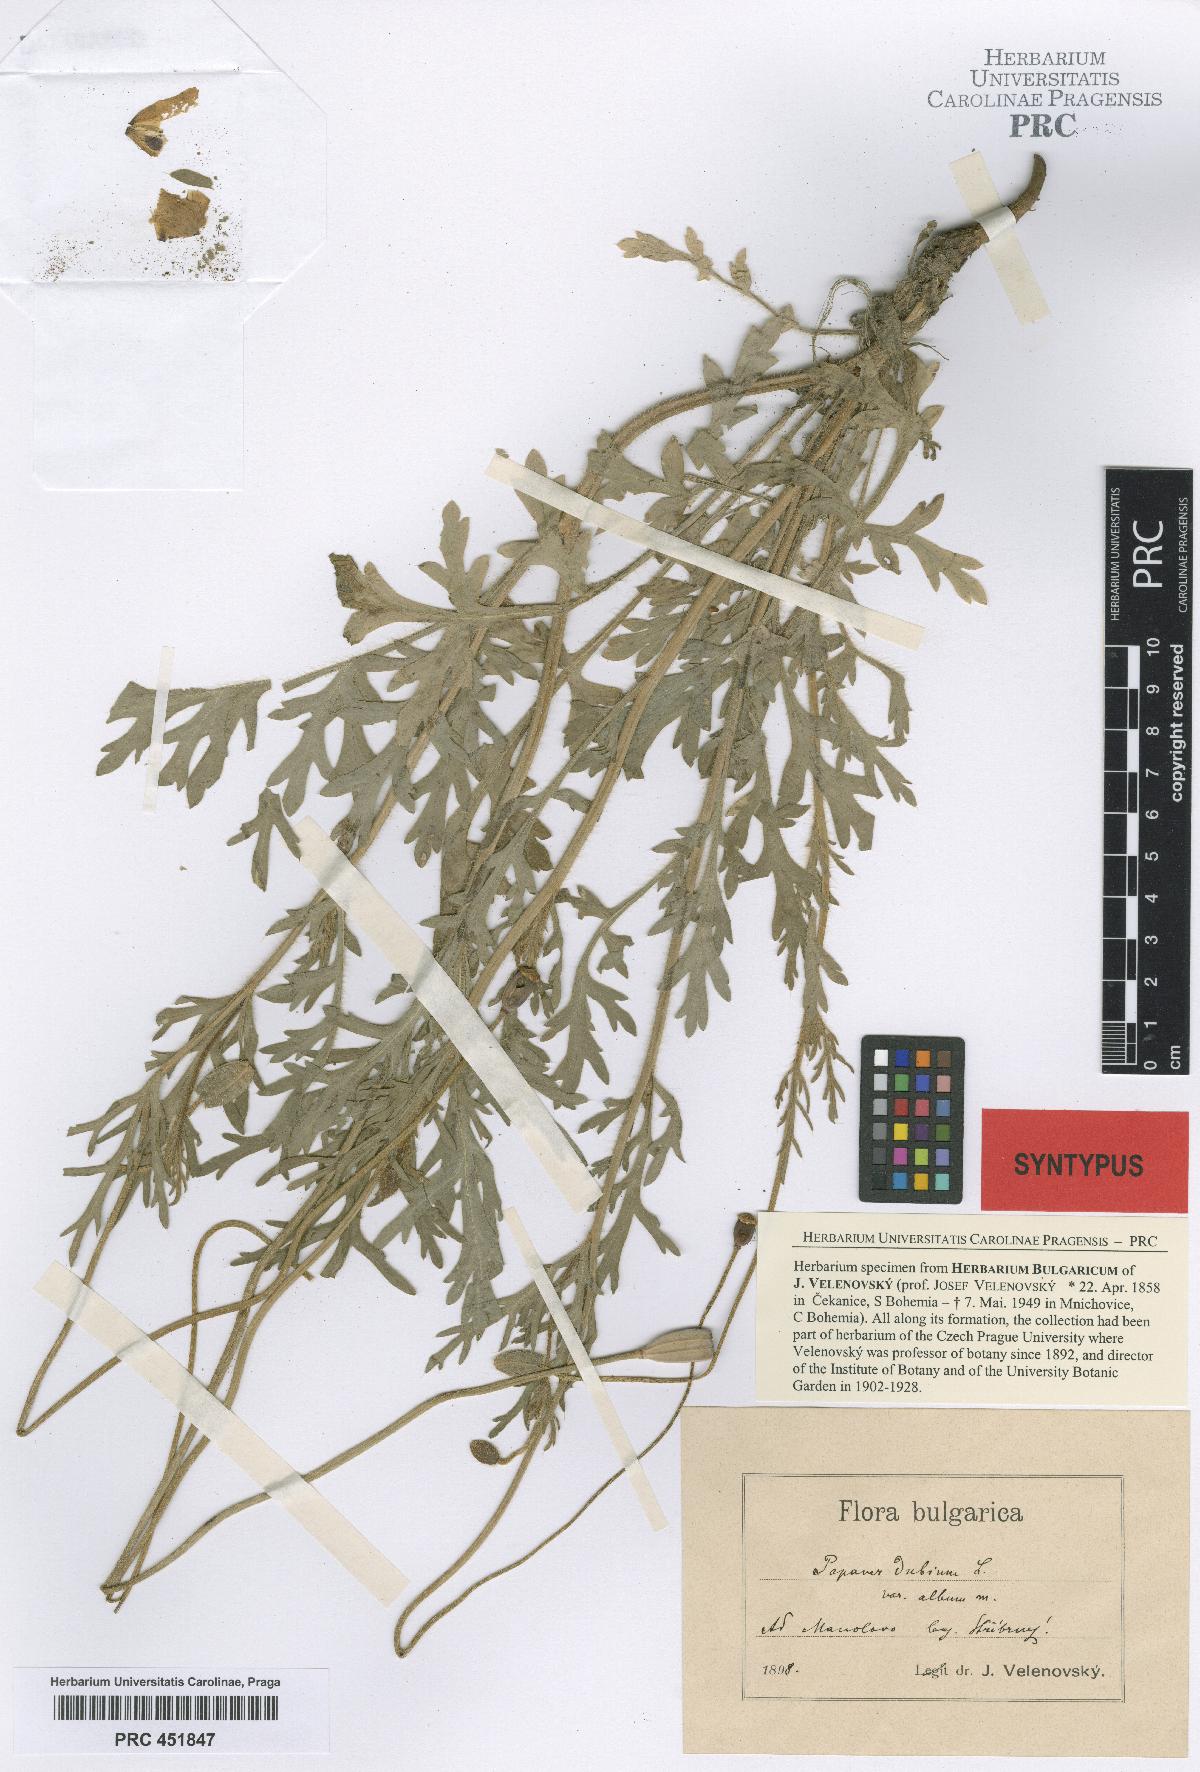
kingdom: Plantae
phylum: Tracheophyta
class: Magnoliopsida
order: Ranunculales
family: Papaveraceae
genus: Papaver
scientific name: Papaver dubium
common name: Long-headed poppy
